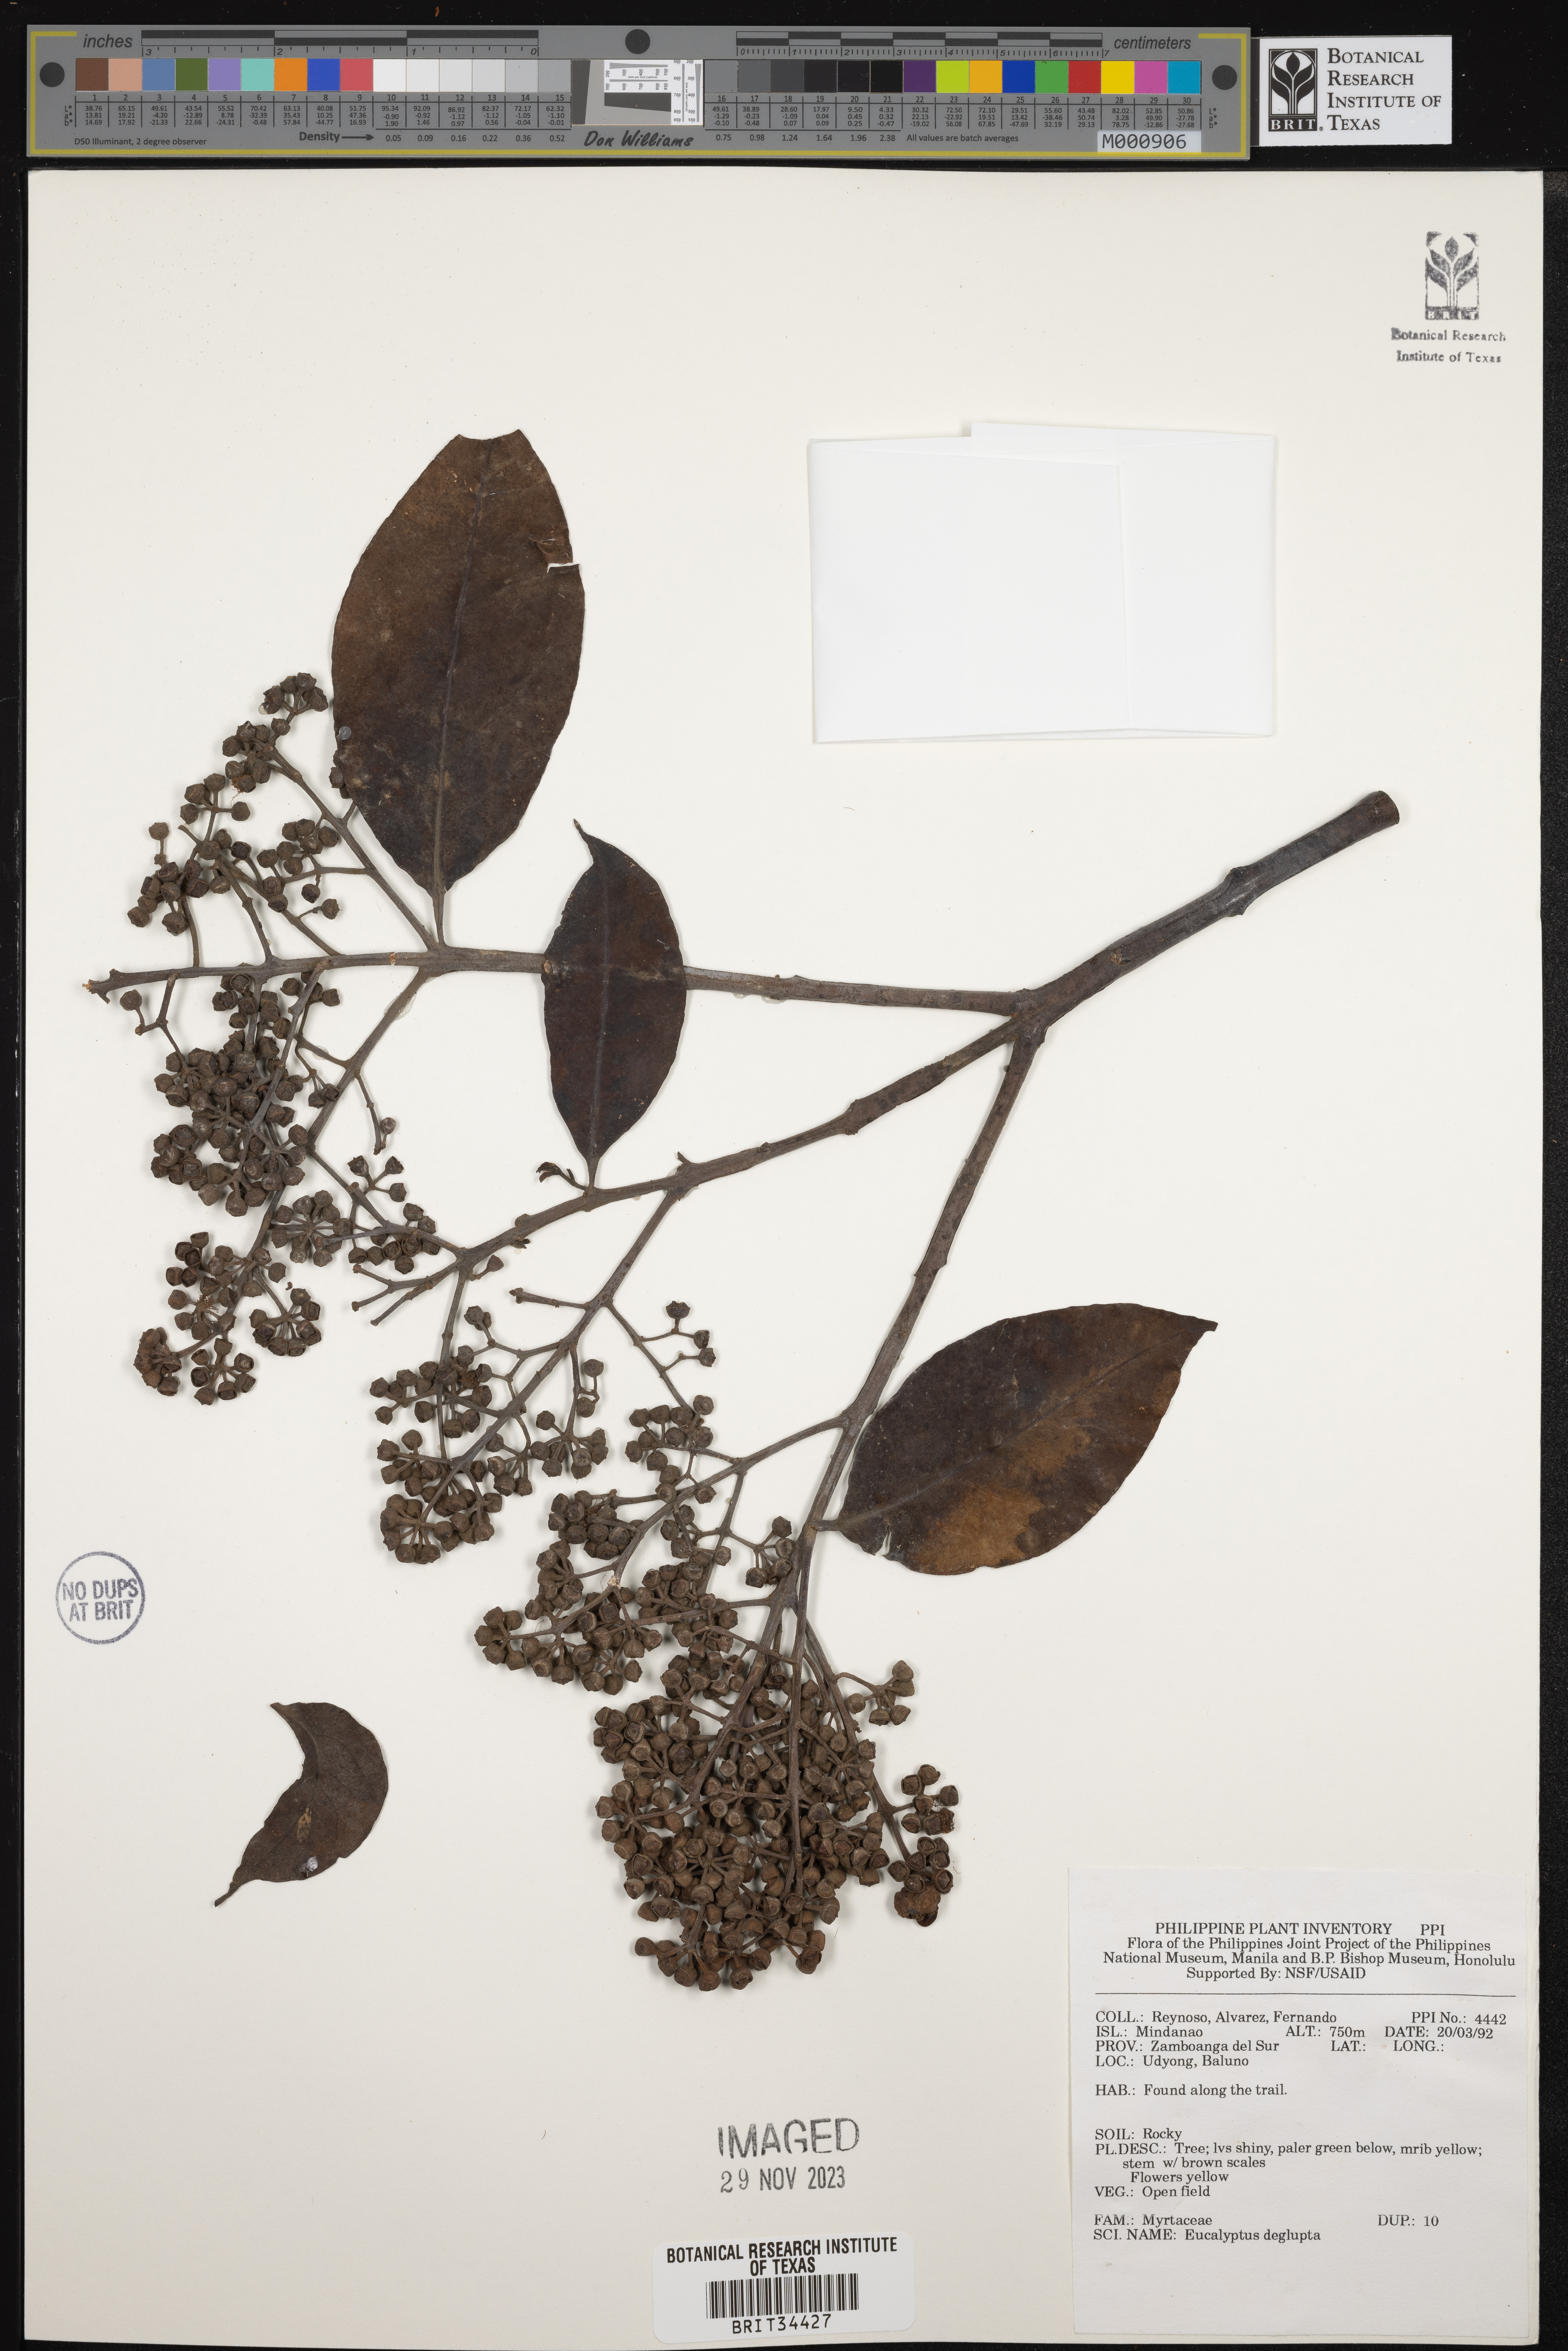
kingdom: Plantae
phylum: Tracheophyta
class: Magnoliopsida
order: Myrtales
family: Myrtaceae
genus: Eucalyptus
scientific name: Eucalyptus deglupta
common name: Mindanao gum
